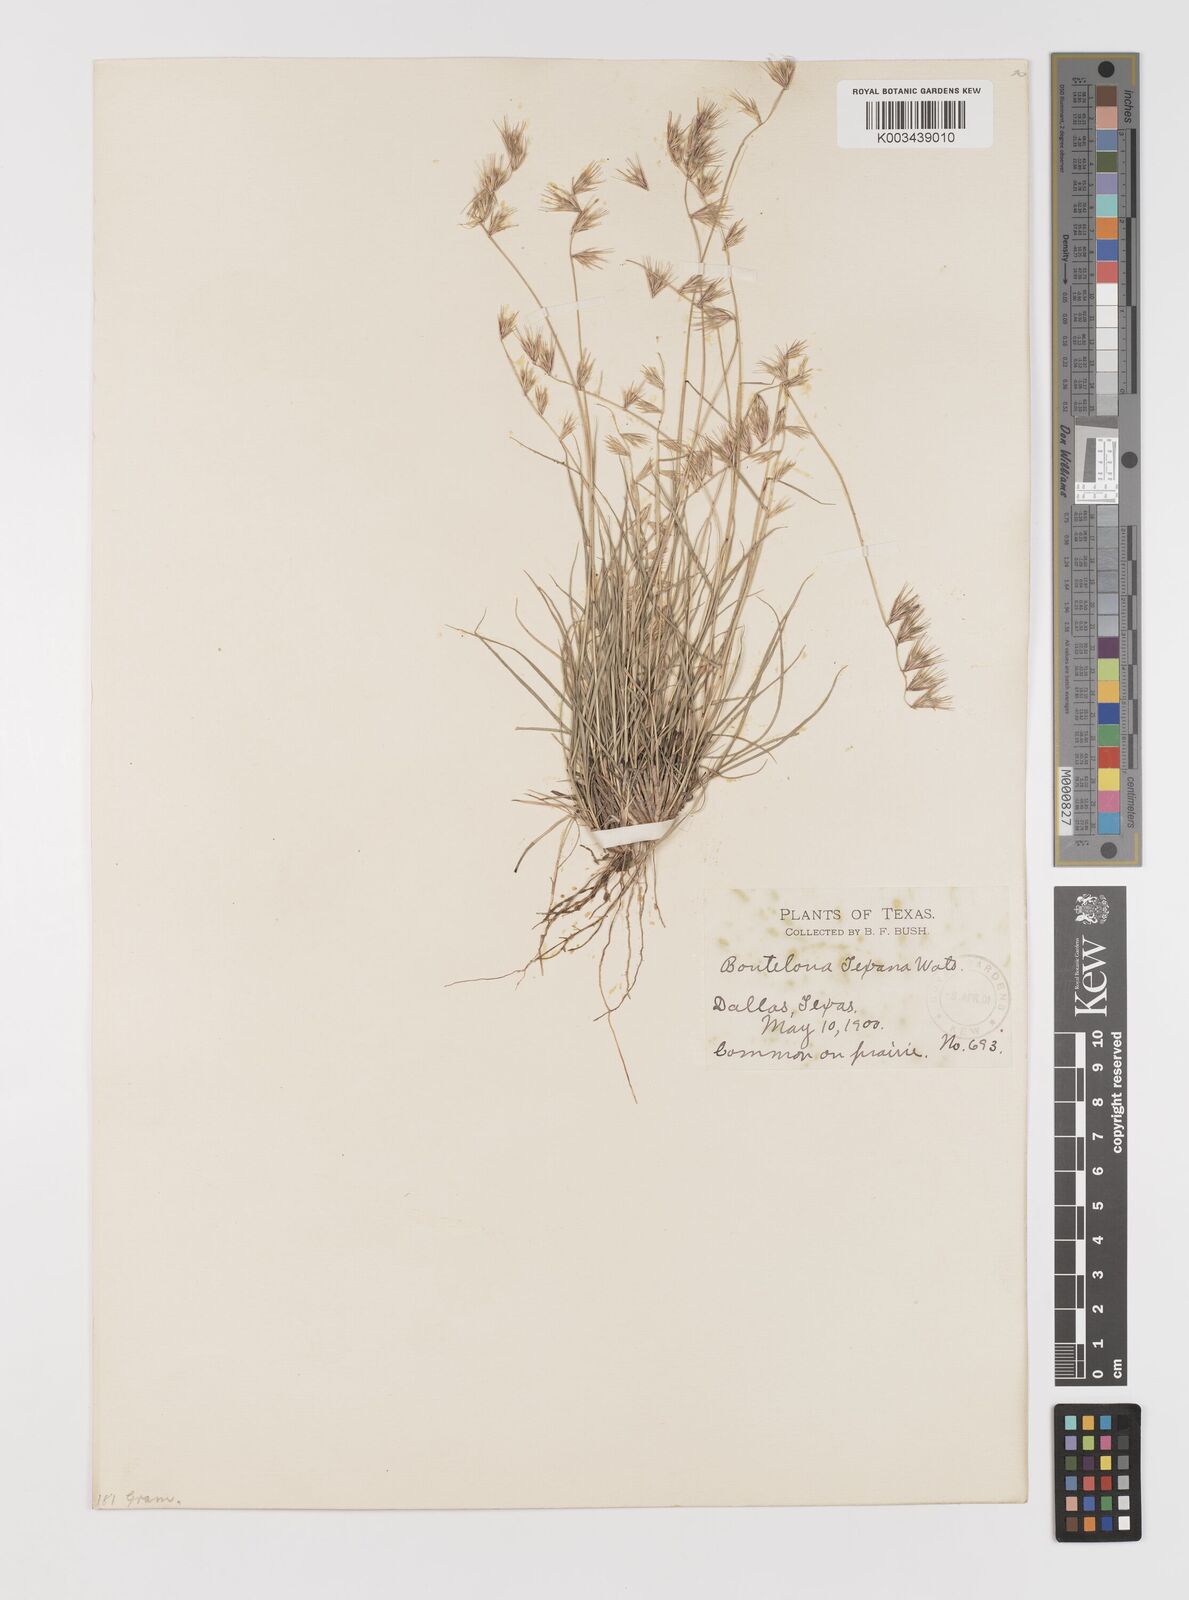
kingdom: Plantae
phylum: Tracheophyta
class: Liliopsida
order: Poales
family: Poaceae
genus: Bouteloua
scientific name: Bouteloua rigidiseta
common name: Texas grama
